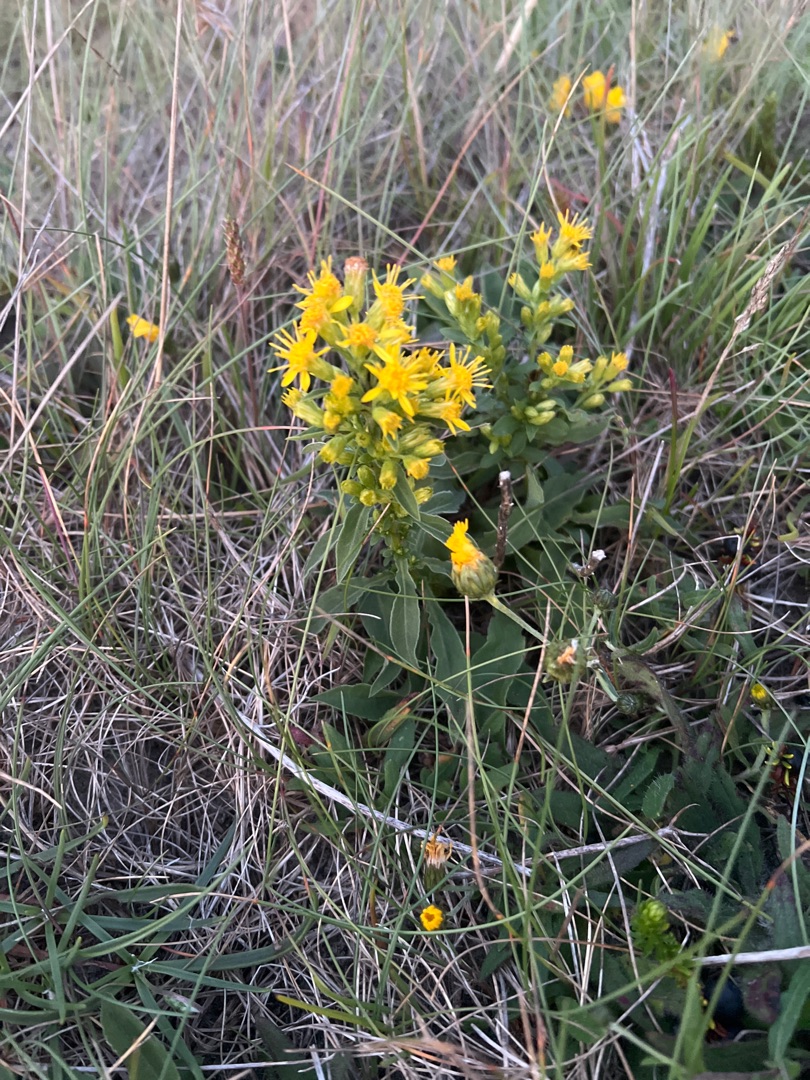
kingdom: Plantae
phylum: Tracheophyta
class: Magnoliopsida
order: Asterales
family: Asteraceae
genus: Solidago
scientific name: Solidago virgaurea
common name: Almindelig gyldenris
